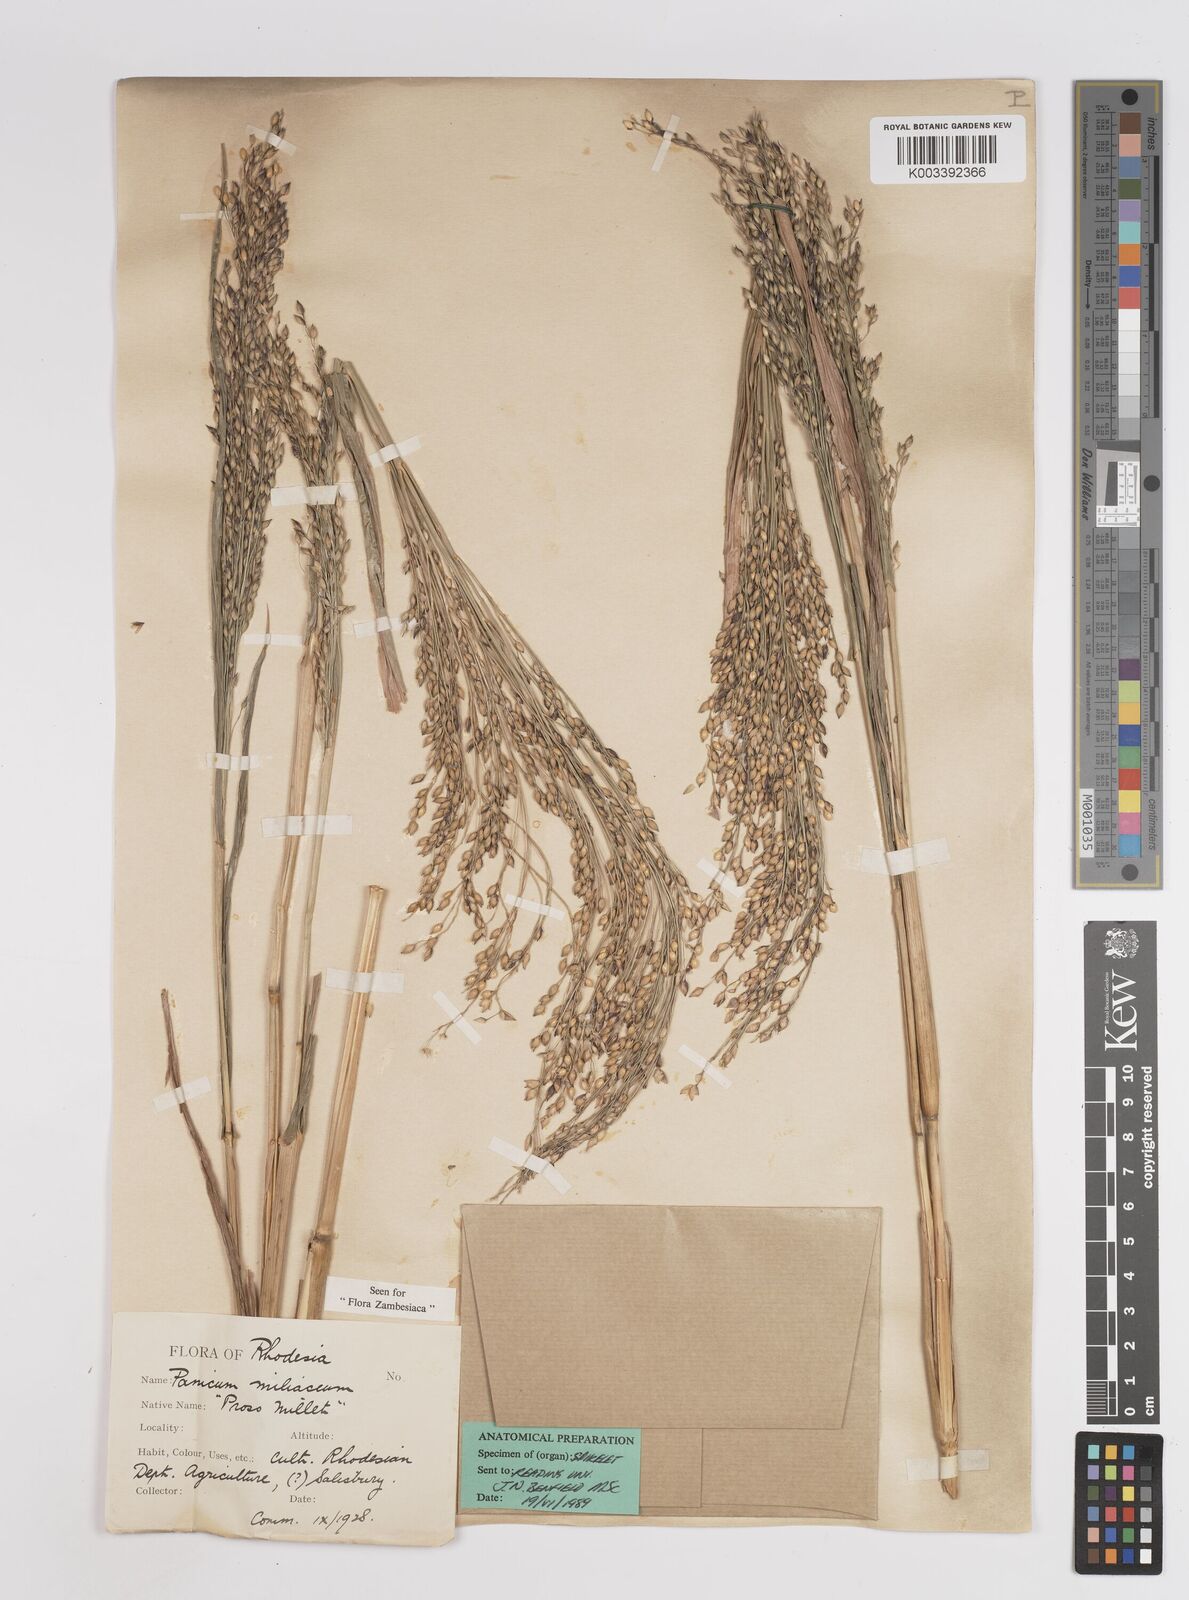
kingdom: Plantae
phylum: Tracheophyta
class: Liliopsida
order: Poales
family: Poaceae
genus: Panicum
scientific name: Panicum miliaceum
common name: Common millet
